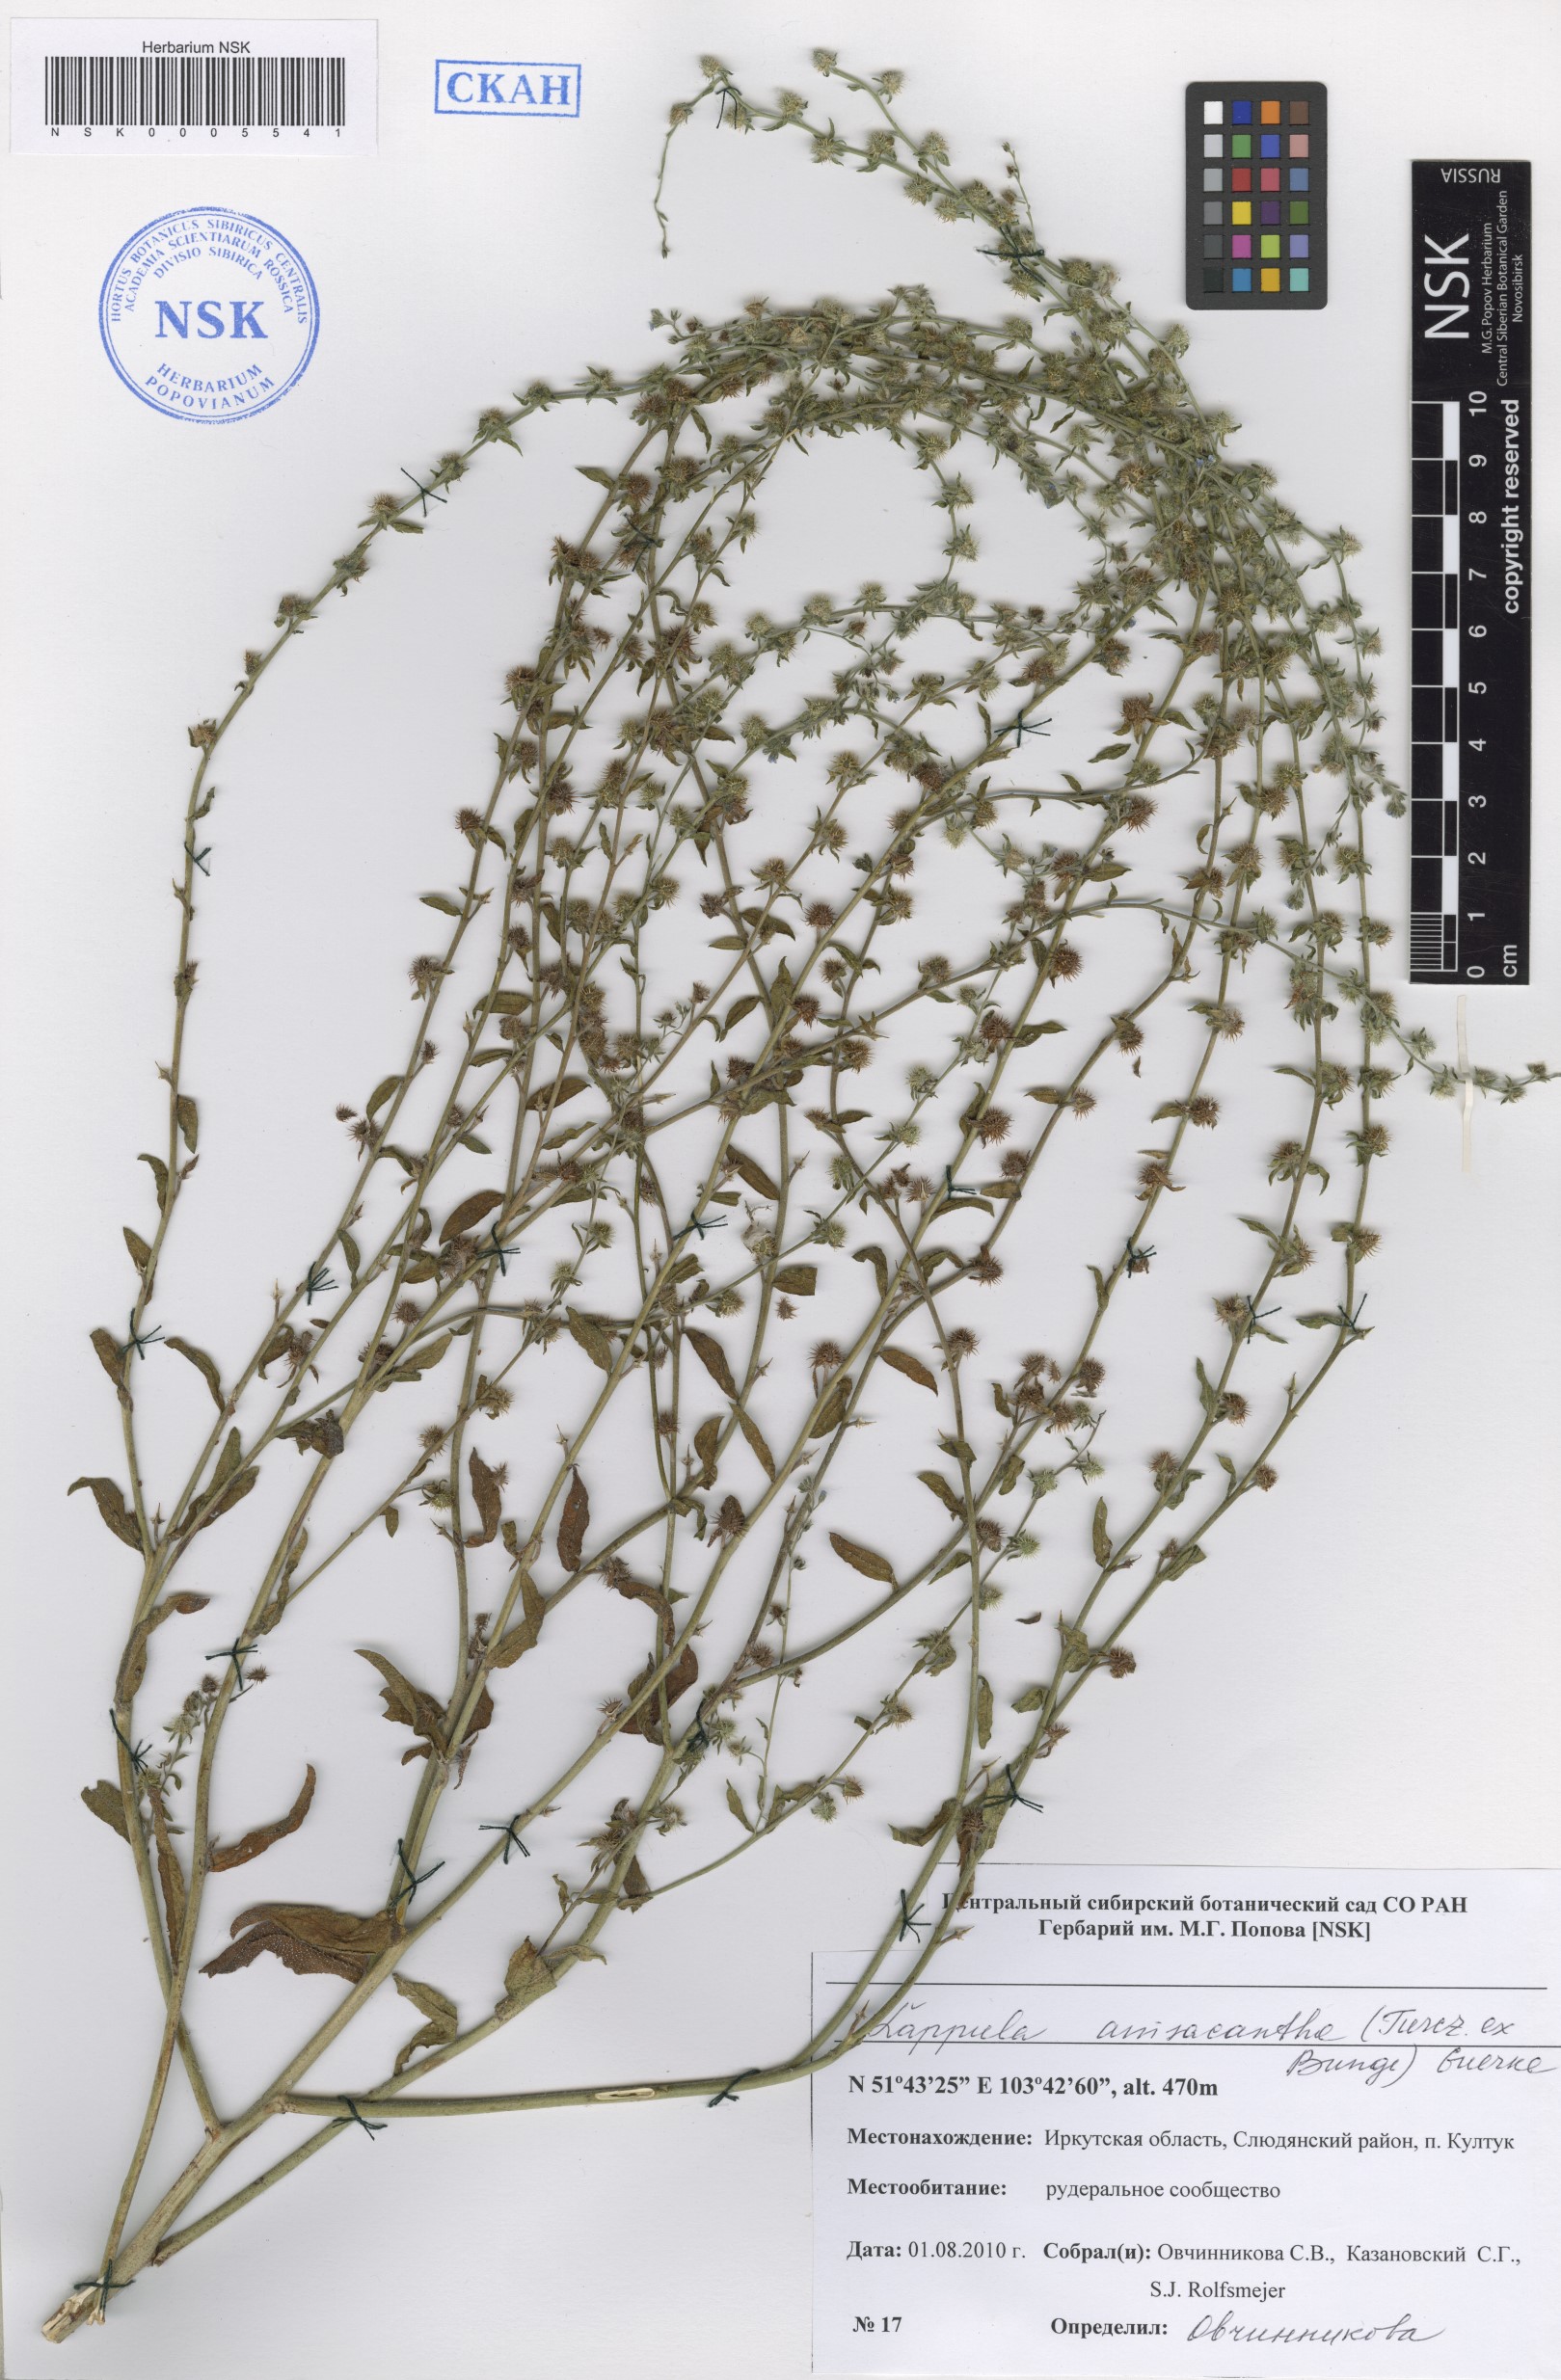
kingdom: Plantae
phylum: Tracheophyta
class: Magnoliopsida
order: Boraginales
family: Boraginaceae
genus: Lappula
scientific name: Lappula intermedia
